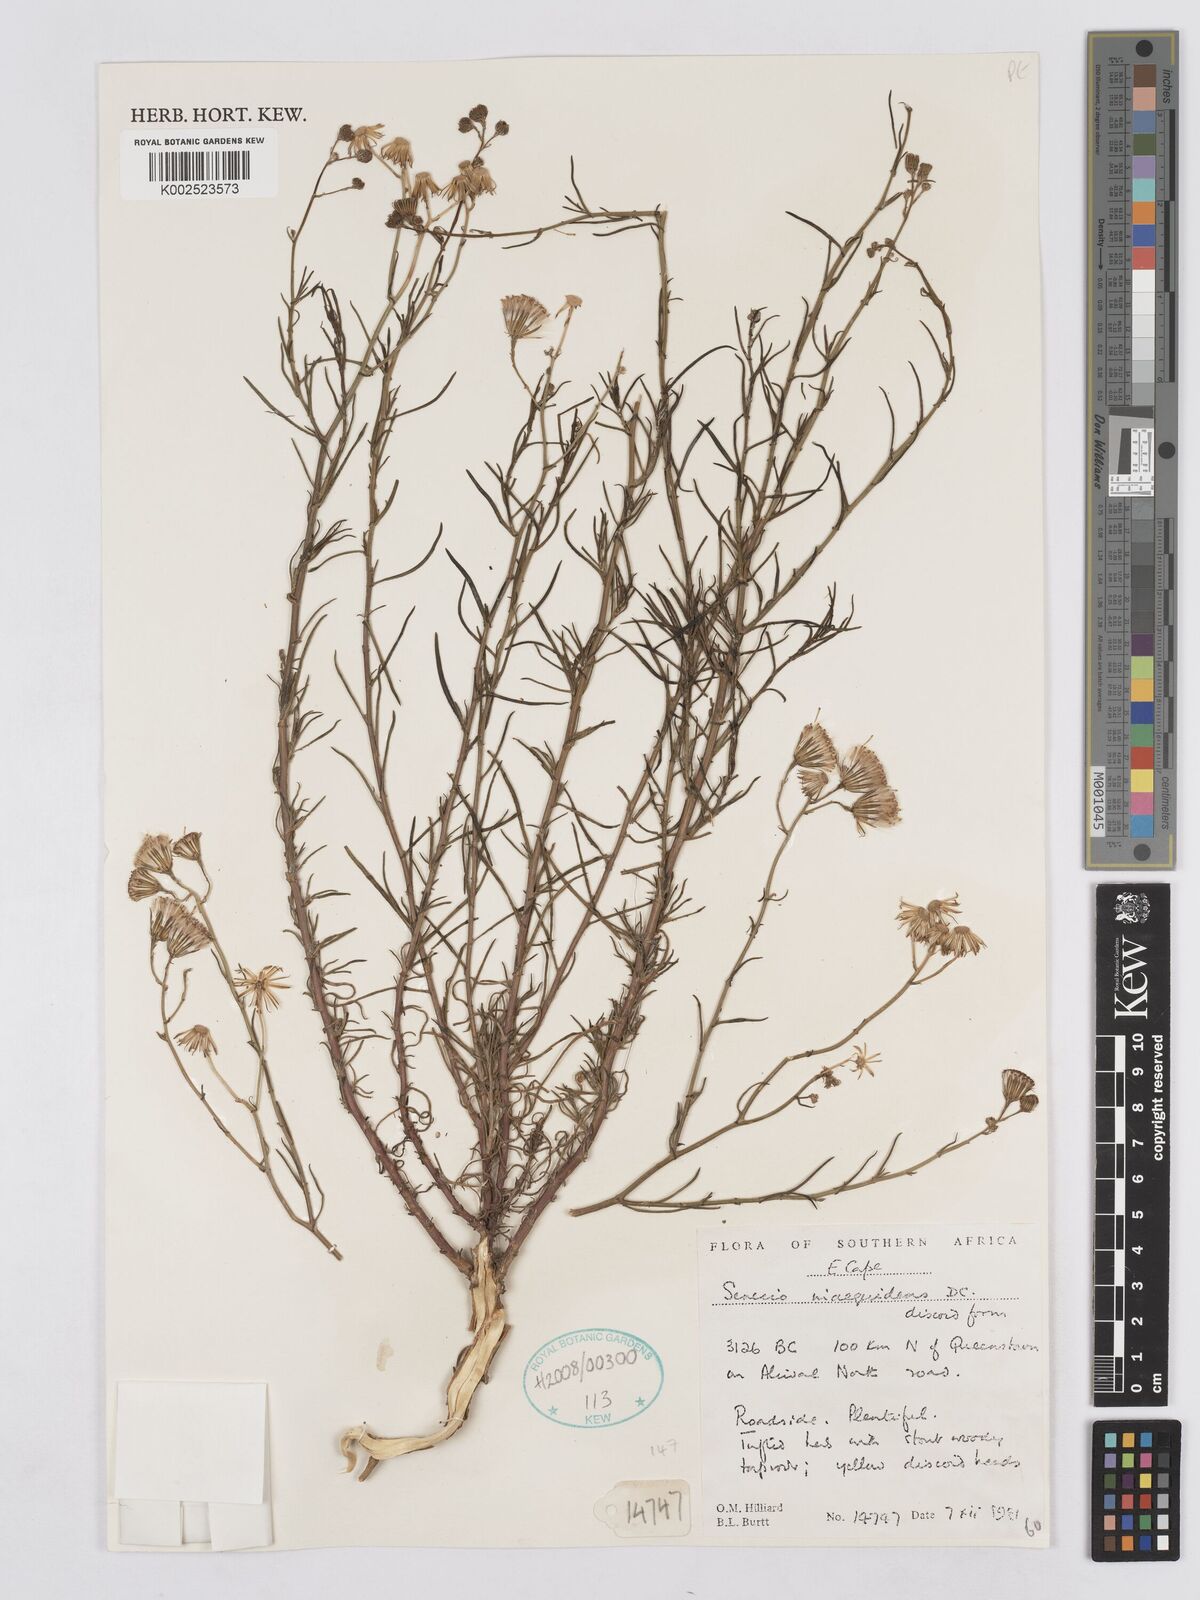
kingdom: Plantae
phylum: Tracheophyta
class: Magnoliopsida
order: Asterales
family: Asteraceae
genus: Senecio
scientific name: Senecio inaequidens
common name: Narrow-leaved ragwort
